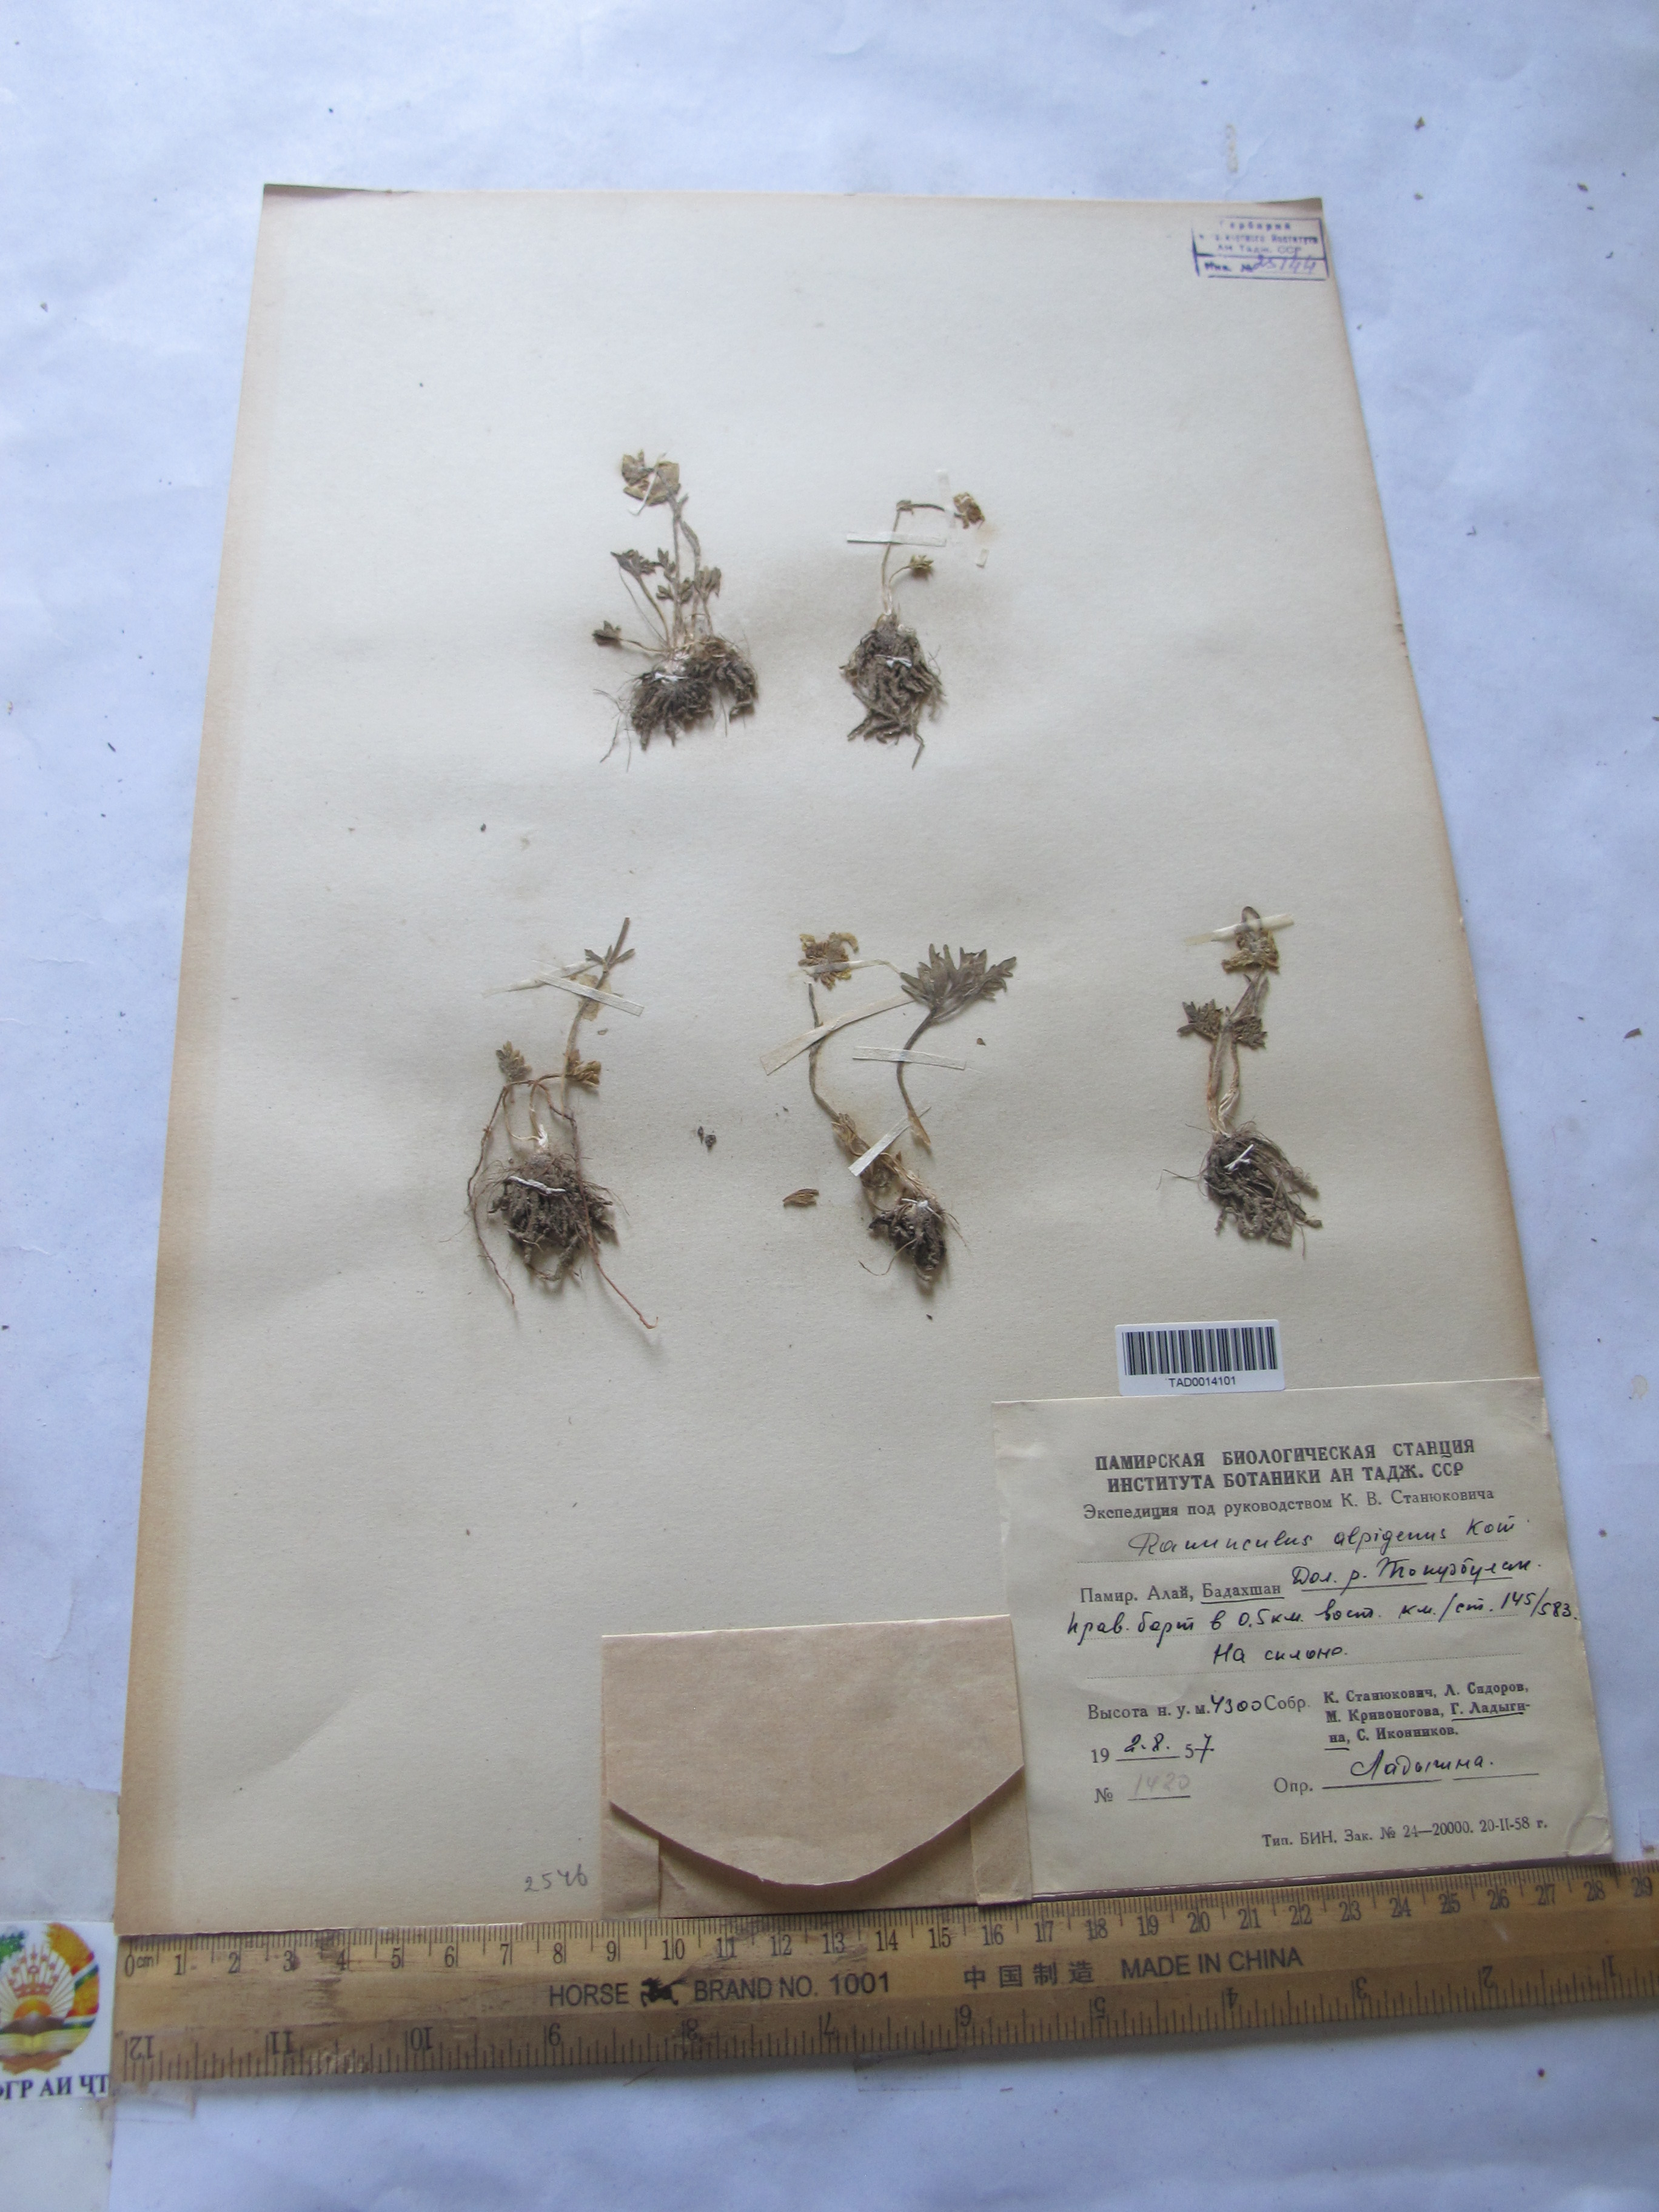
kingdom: Plantae
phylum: Tracheophyta
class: Magnoliopsida
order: Ranunculales
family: Ranunculaceae
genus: Ranunculus
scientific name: Ranunculus alpigenus
